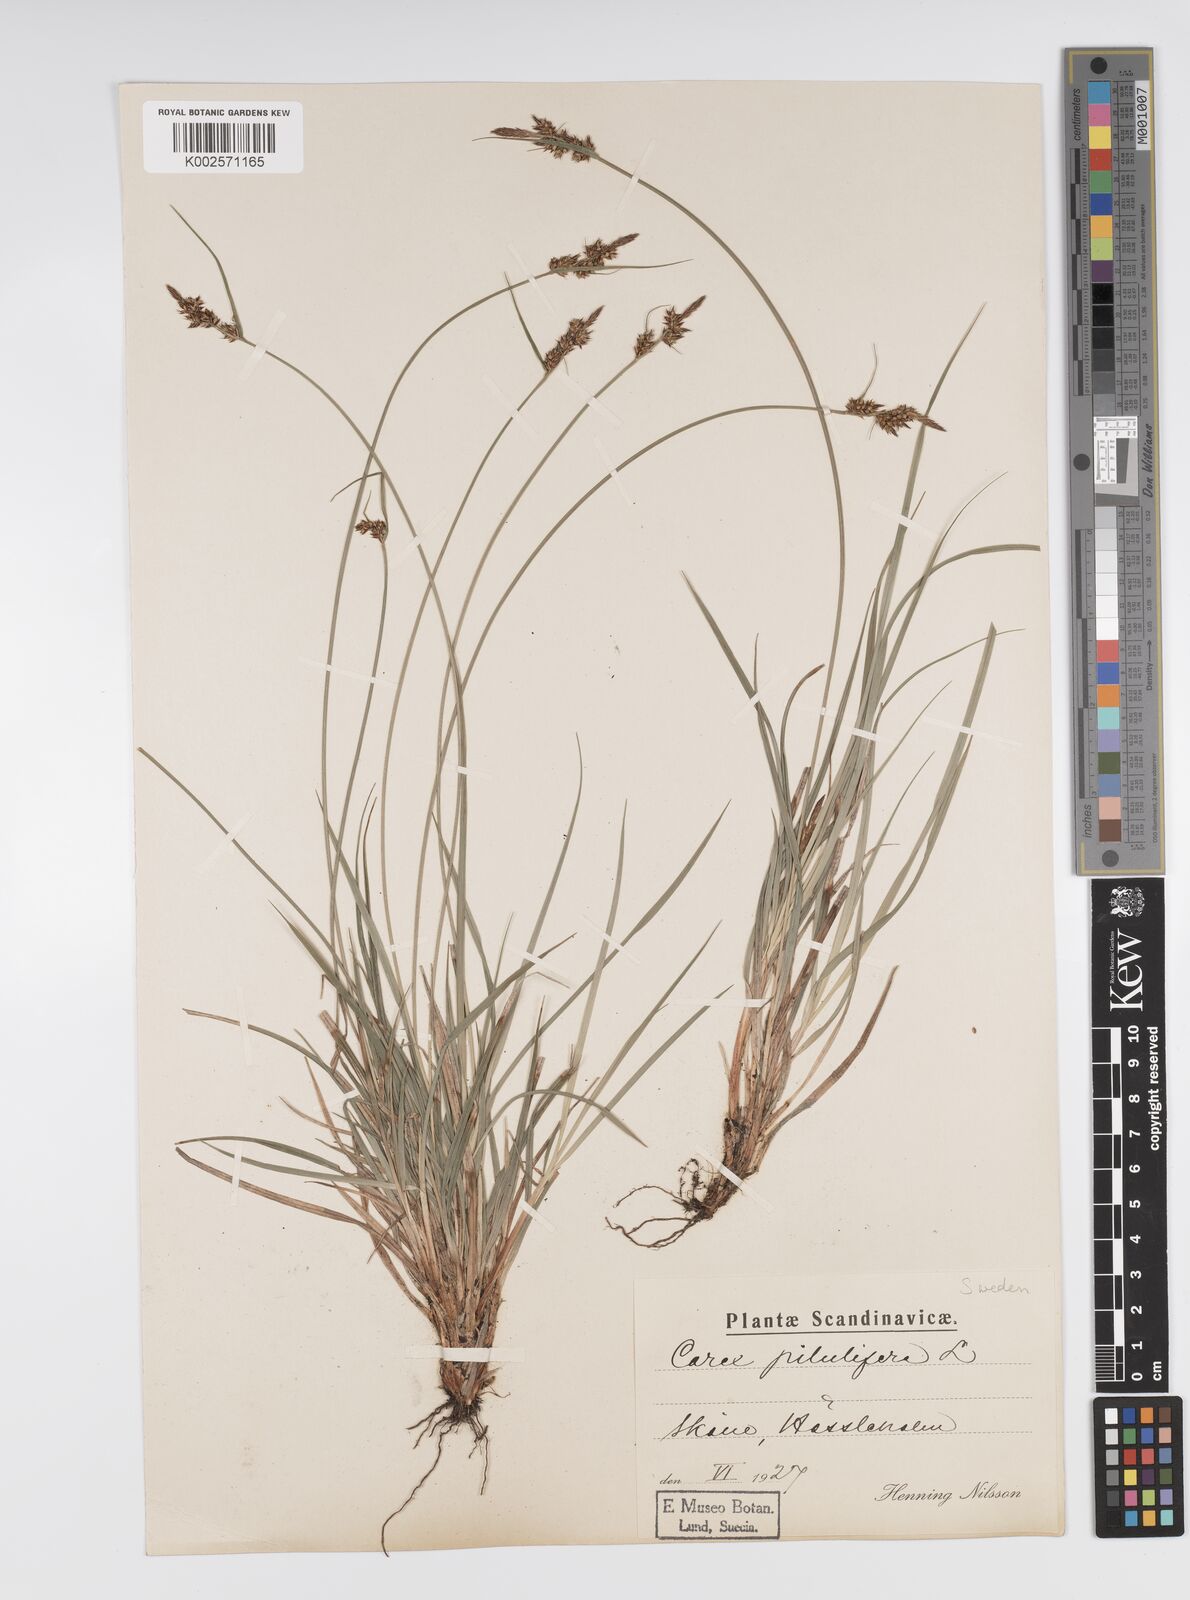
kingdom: Plantae
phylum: Tracheophyta
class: Liliopsida
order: Poales
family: Cyperaceae
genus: Carex
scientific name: Carex pilulifera
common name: Pill sedge
